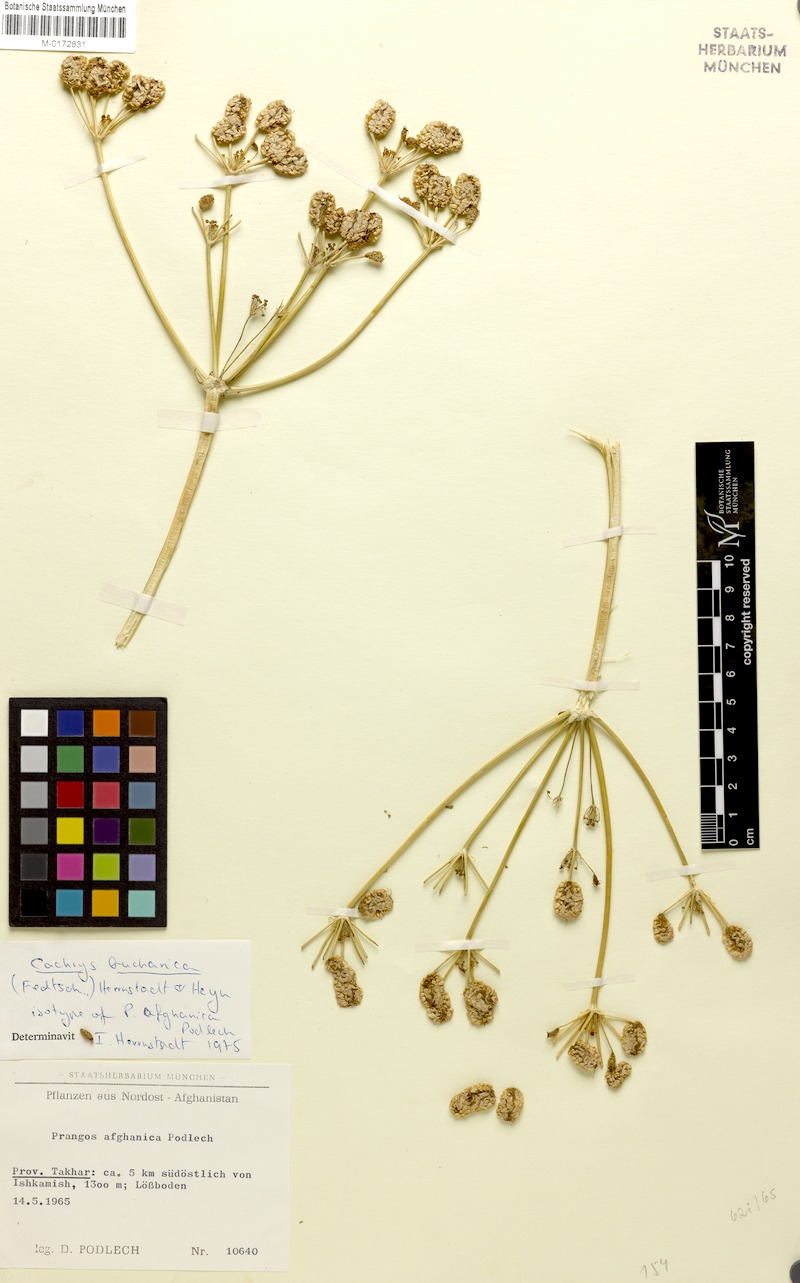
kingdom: Plantae
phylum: Tracheophyta
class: Magnoliopsida
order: Apiales
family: Apiaceae
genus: Prangos
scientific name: Prangos bucharica
